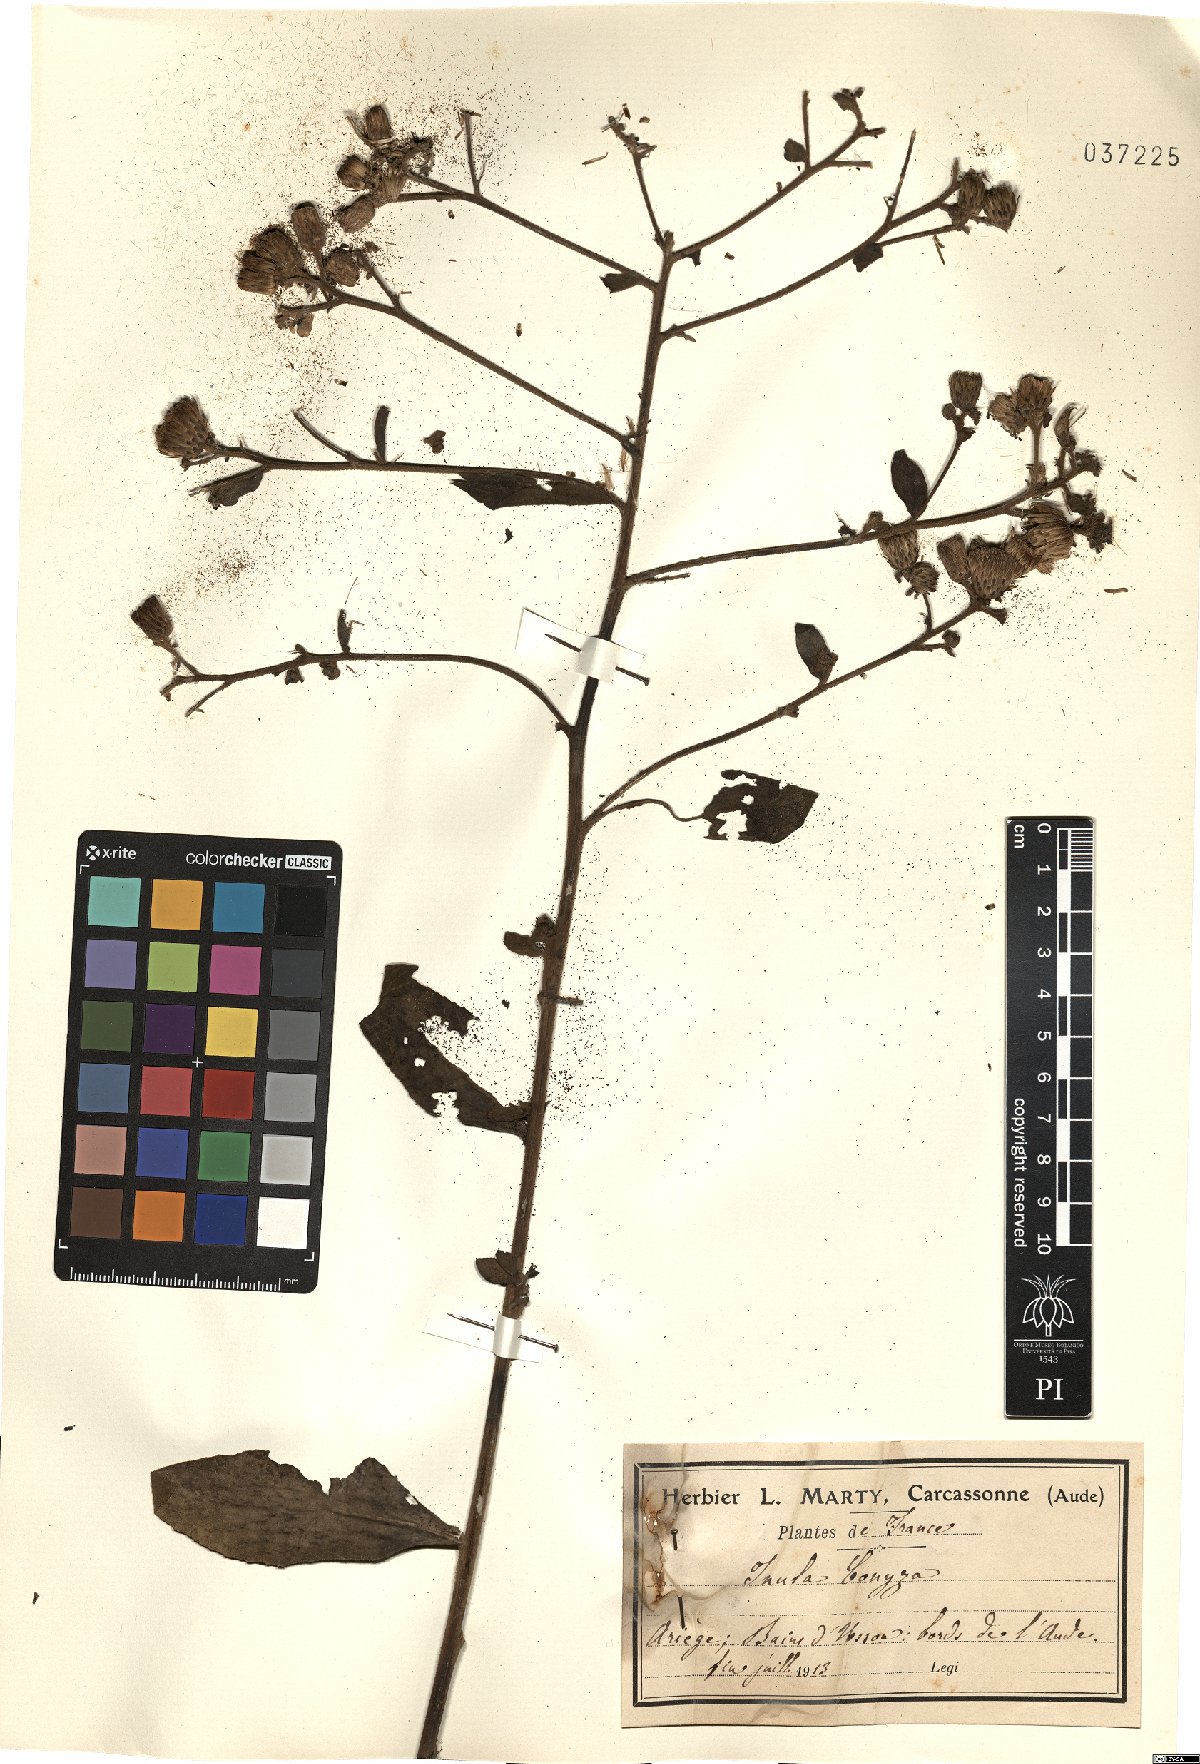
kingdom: Plantae
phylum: Tracheophyta
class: Magnoliopsida
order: Asterales
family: Asteraceae
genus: Pentanema
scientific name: Pentanema squarrosum
